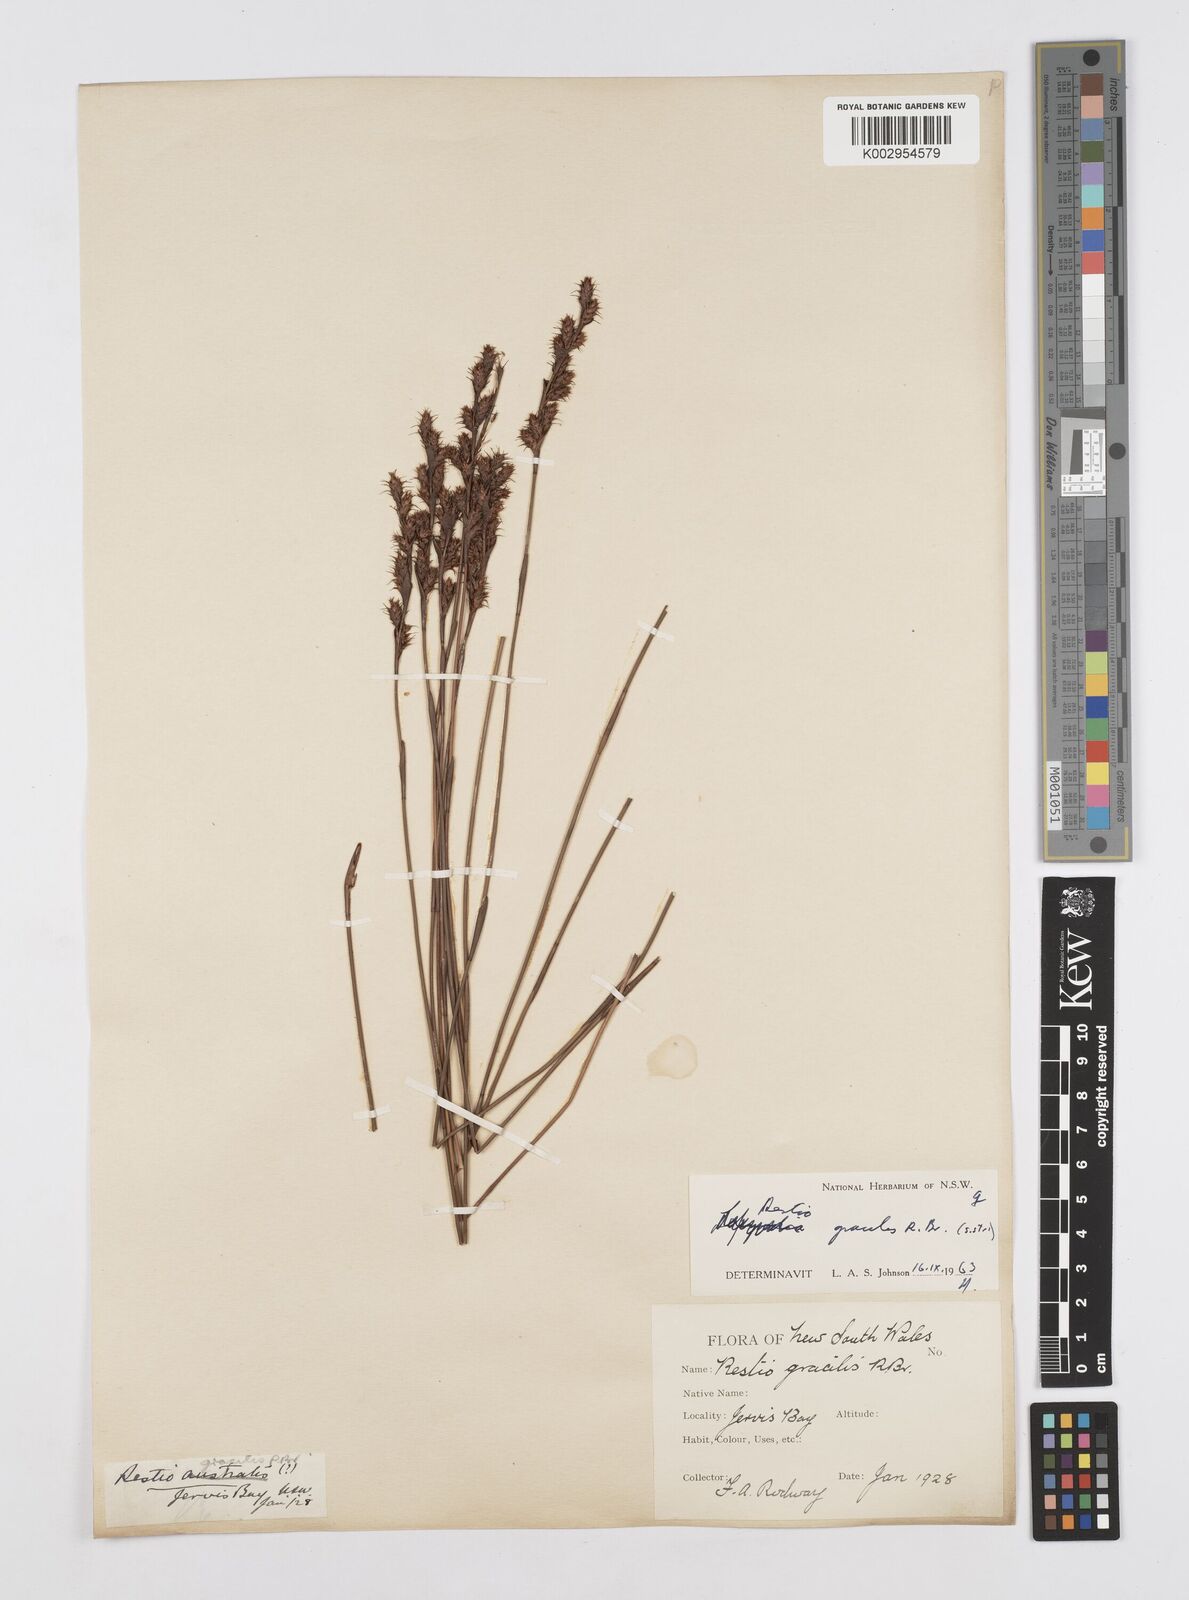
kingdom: Plantae
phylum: Tracheophyta
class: Liliopsida
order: Poales
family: Restionaceae
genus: Baloskion
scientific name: Baloskion gracile
